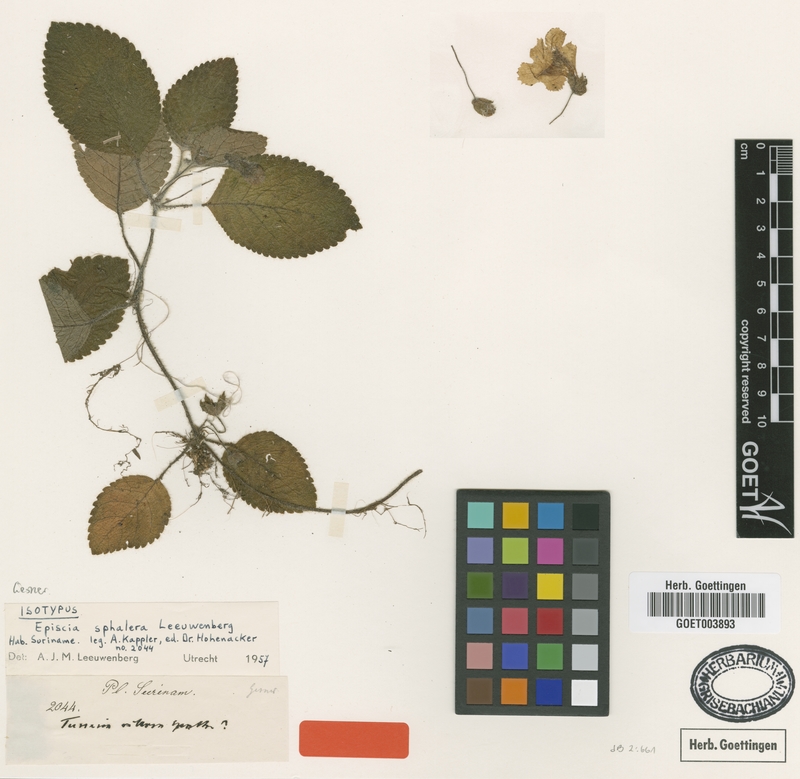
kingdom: Plantae
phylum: Tracheophyta
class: Magnoliopsida
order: Lamiales
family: Gesneriaceae
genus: Episcia
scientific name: Episcia sphalera
